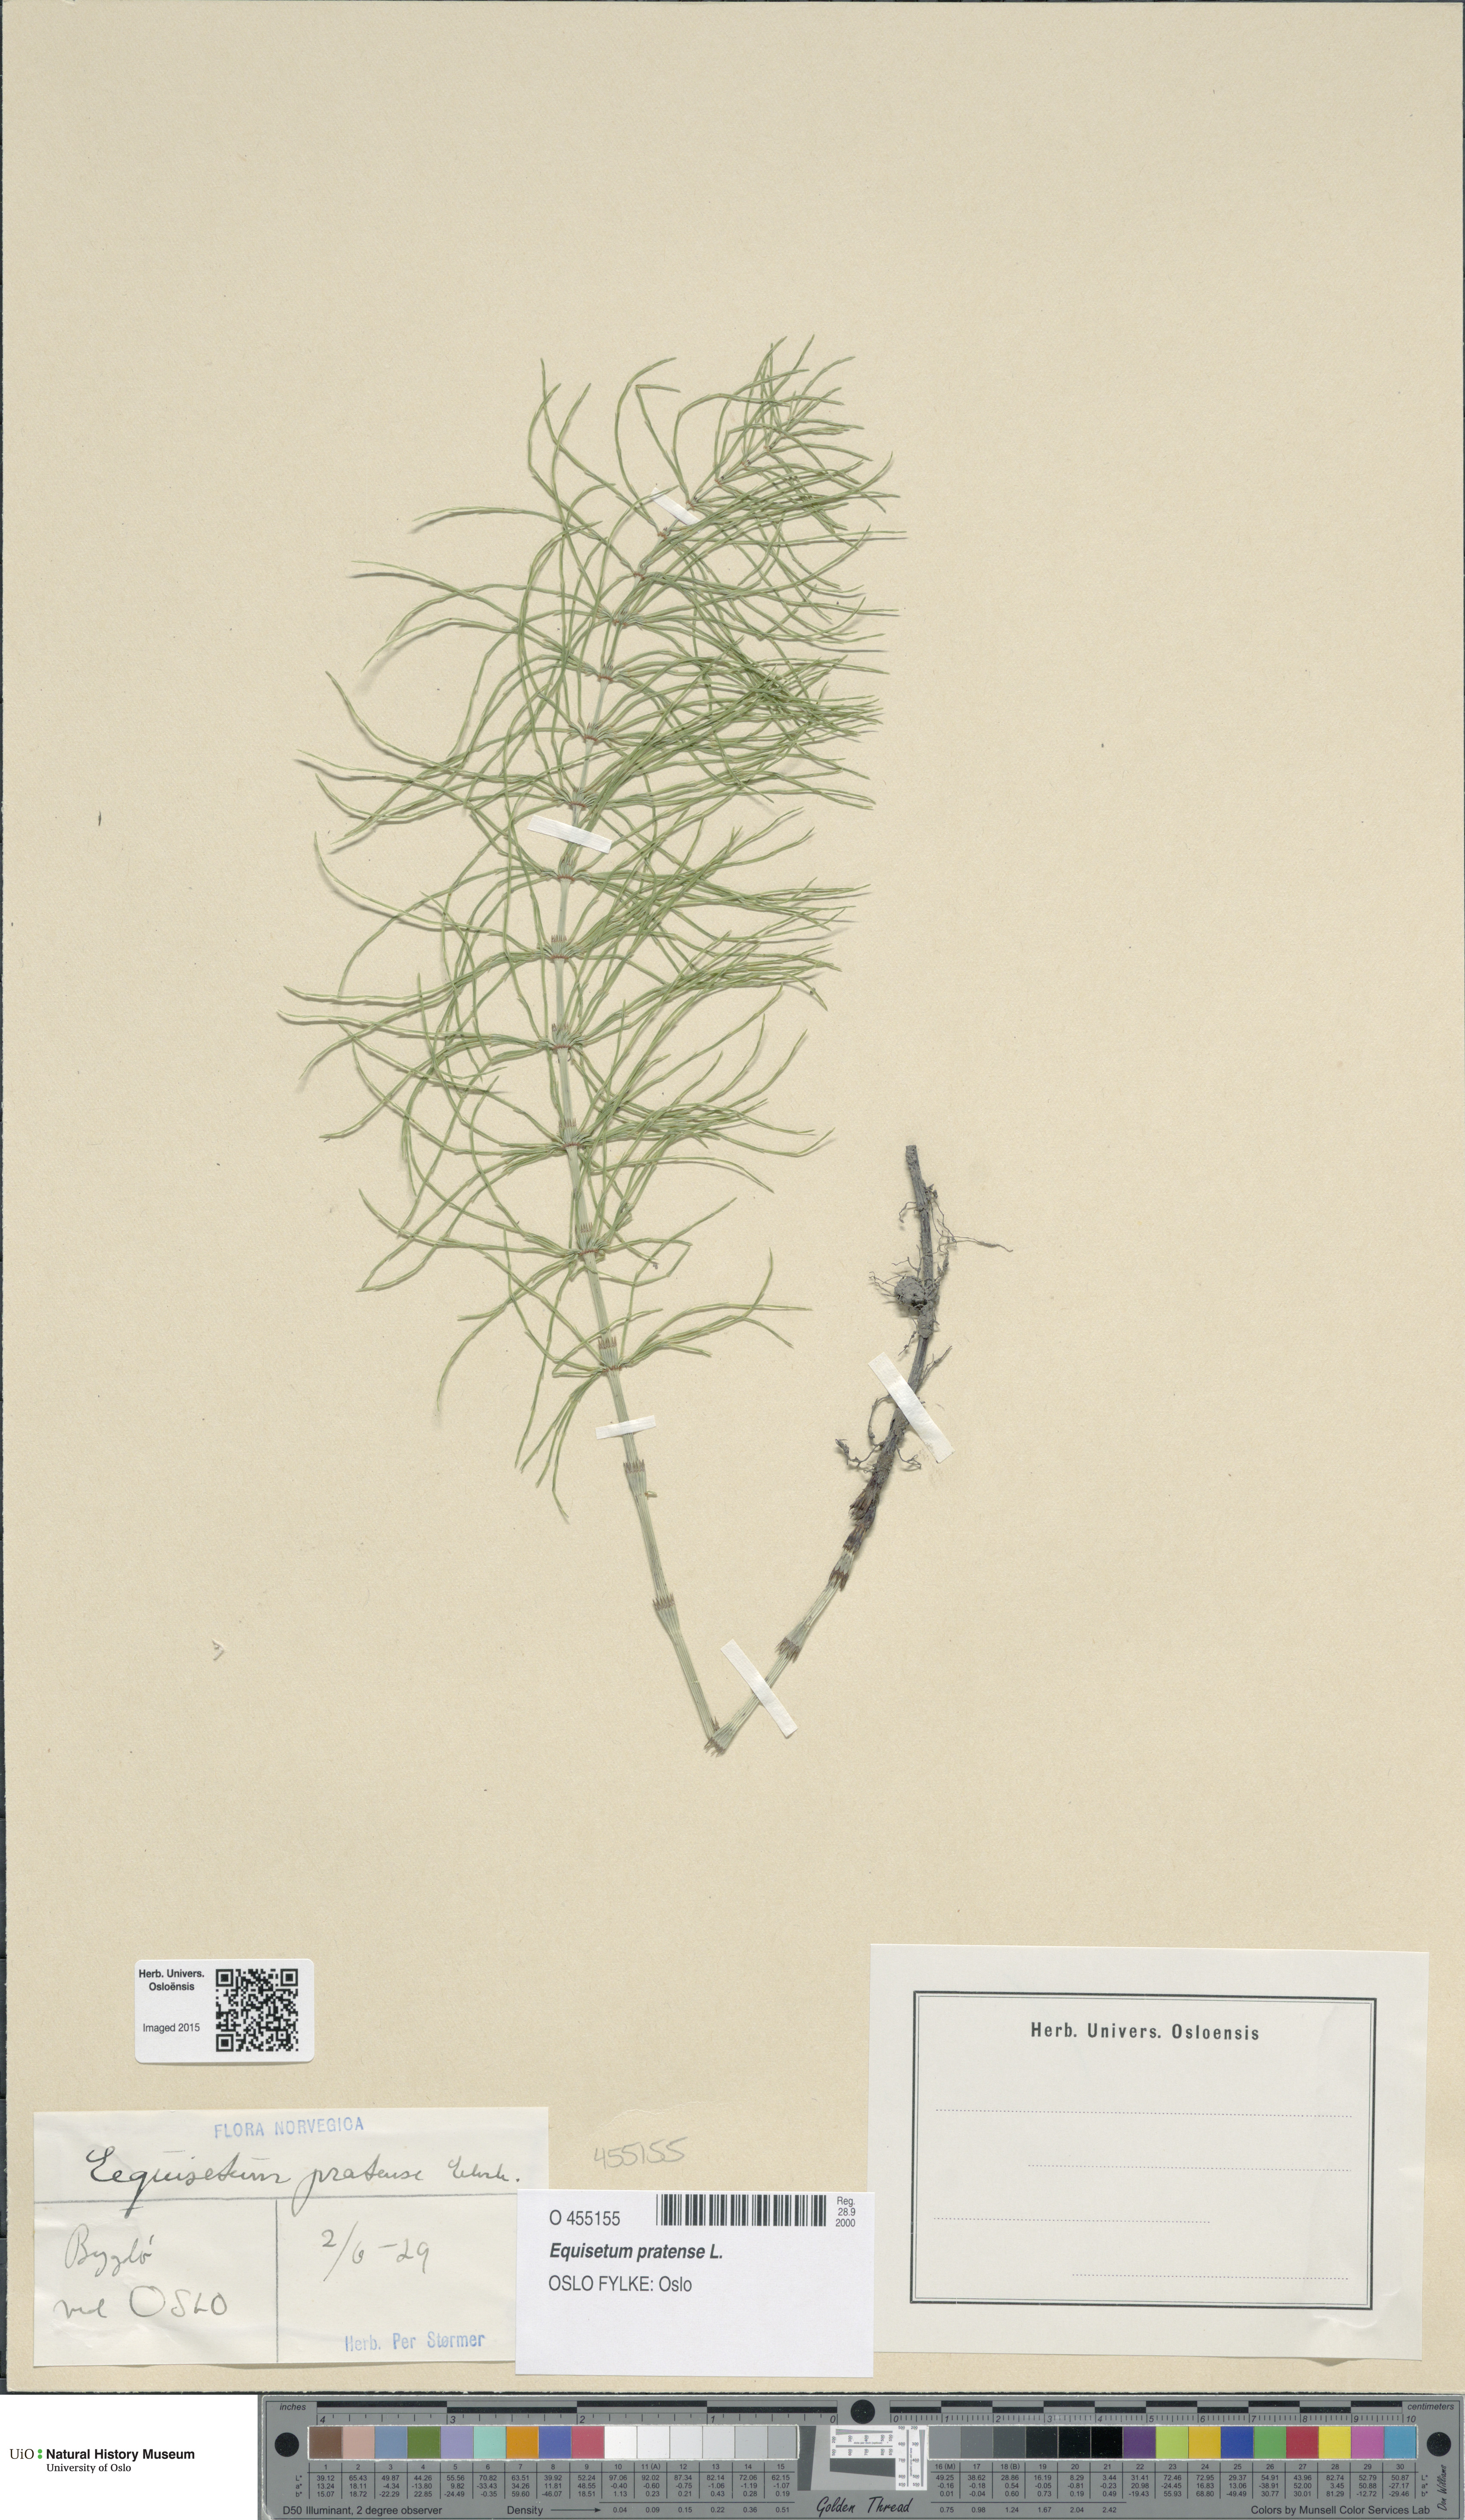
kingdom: Plantae
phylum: Tracheophyta
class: Polypodiopsida
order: Equisetales
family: Equisetaceae
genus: Equisetum
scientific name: Equisetum pratense
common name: Meadow horsetail
